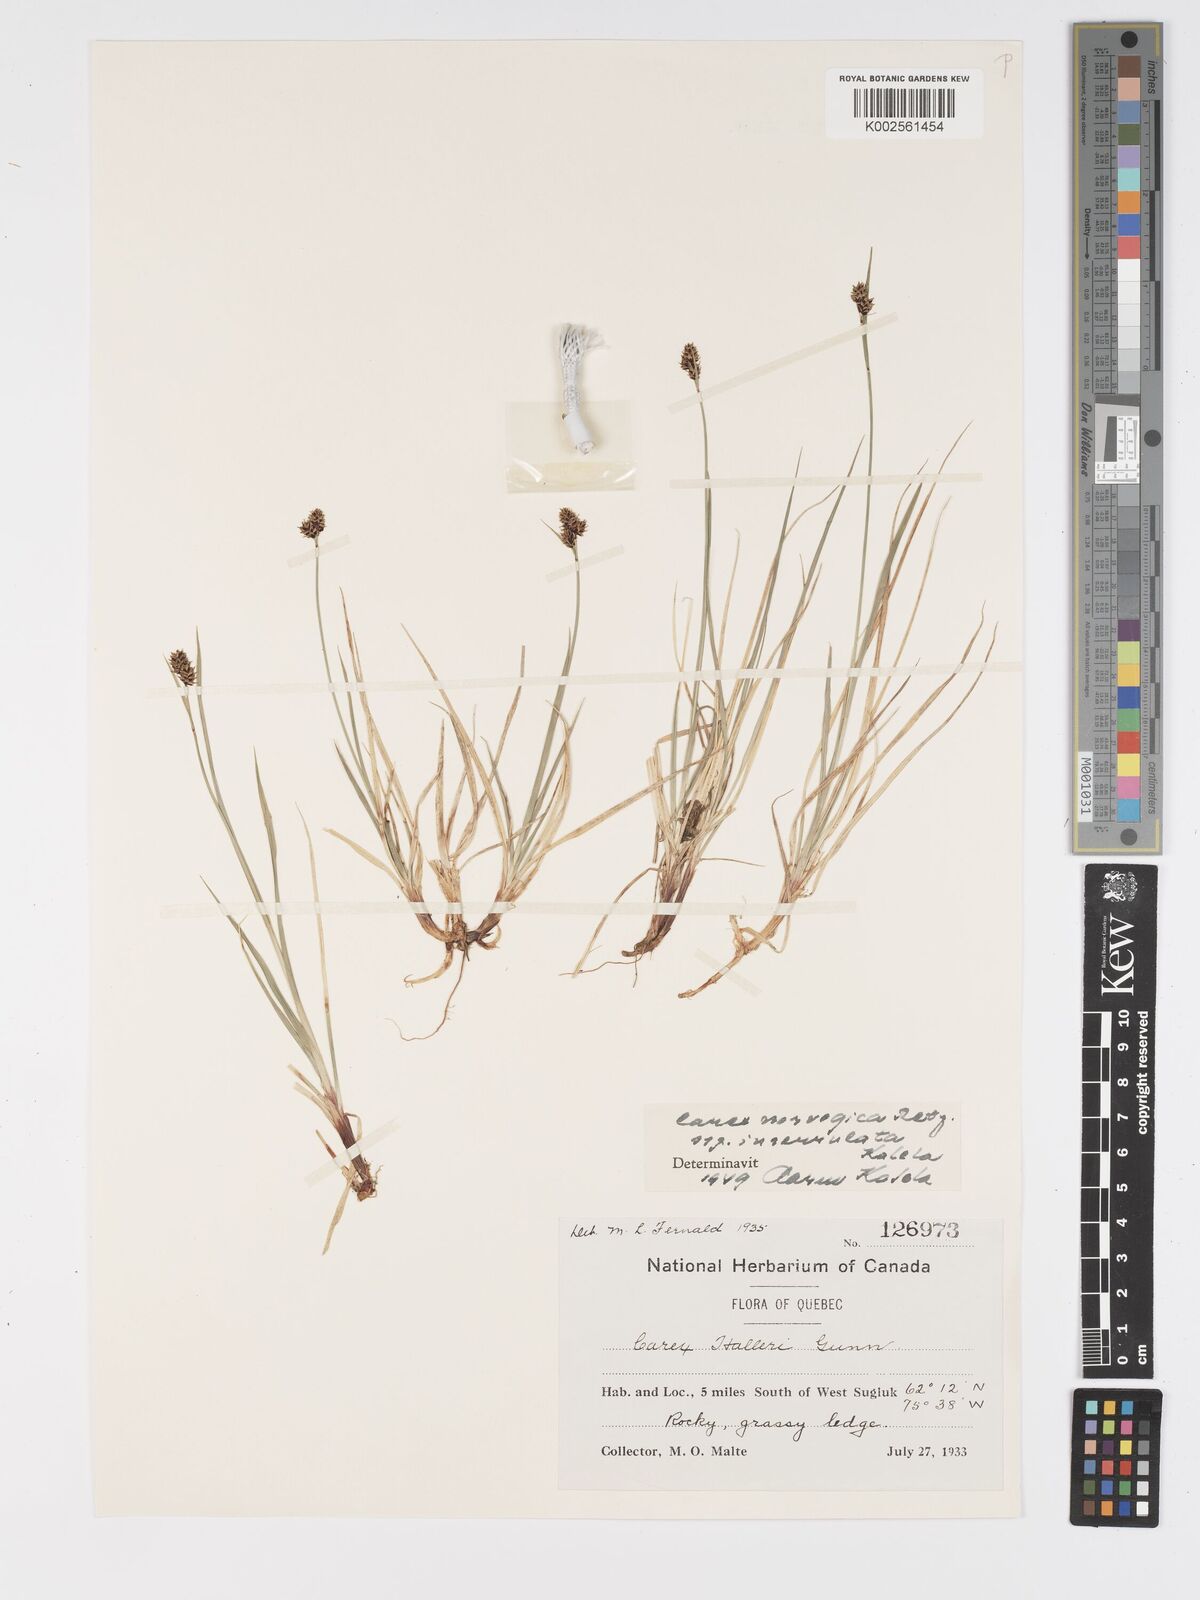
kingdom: Plantae
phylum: Tracheophyta
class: Liliopsida
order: Poales
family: Cyperaceae
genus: Carex
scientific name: Carex norvegica
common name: Close-headed alpine-sedge
